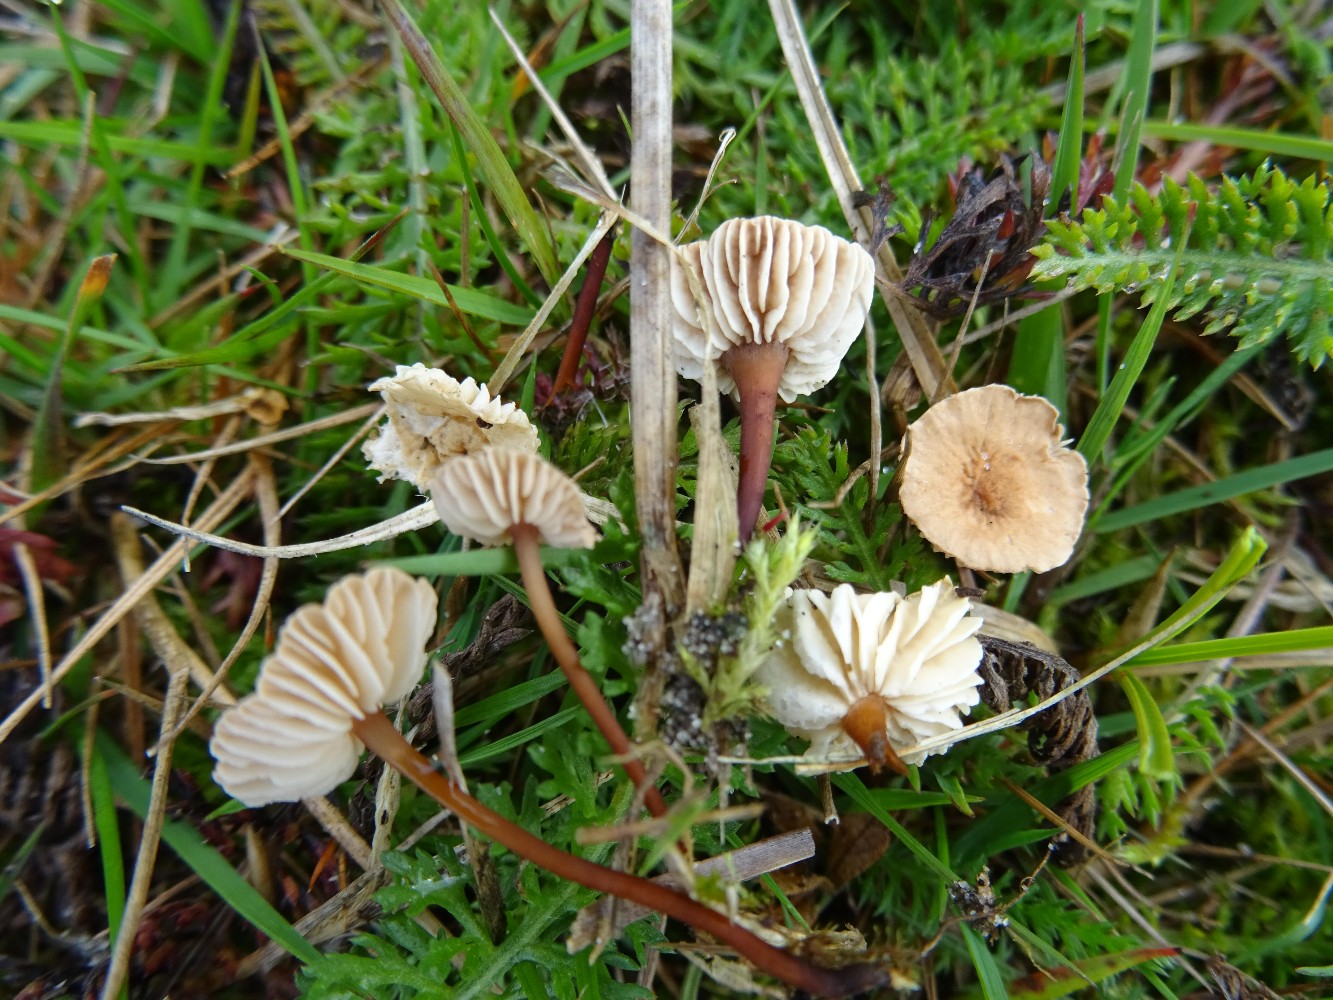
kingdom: Fungi
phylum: Basidiomycota
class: Agaricomycetes
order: Agaricales
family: Omphalotaceae
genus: Mycetinis
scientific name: Mycetinis scorodonius
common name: lille løghat
